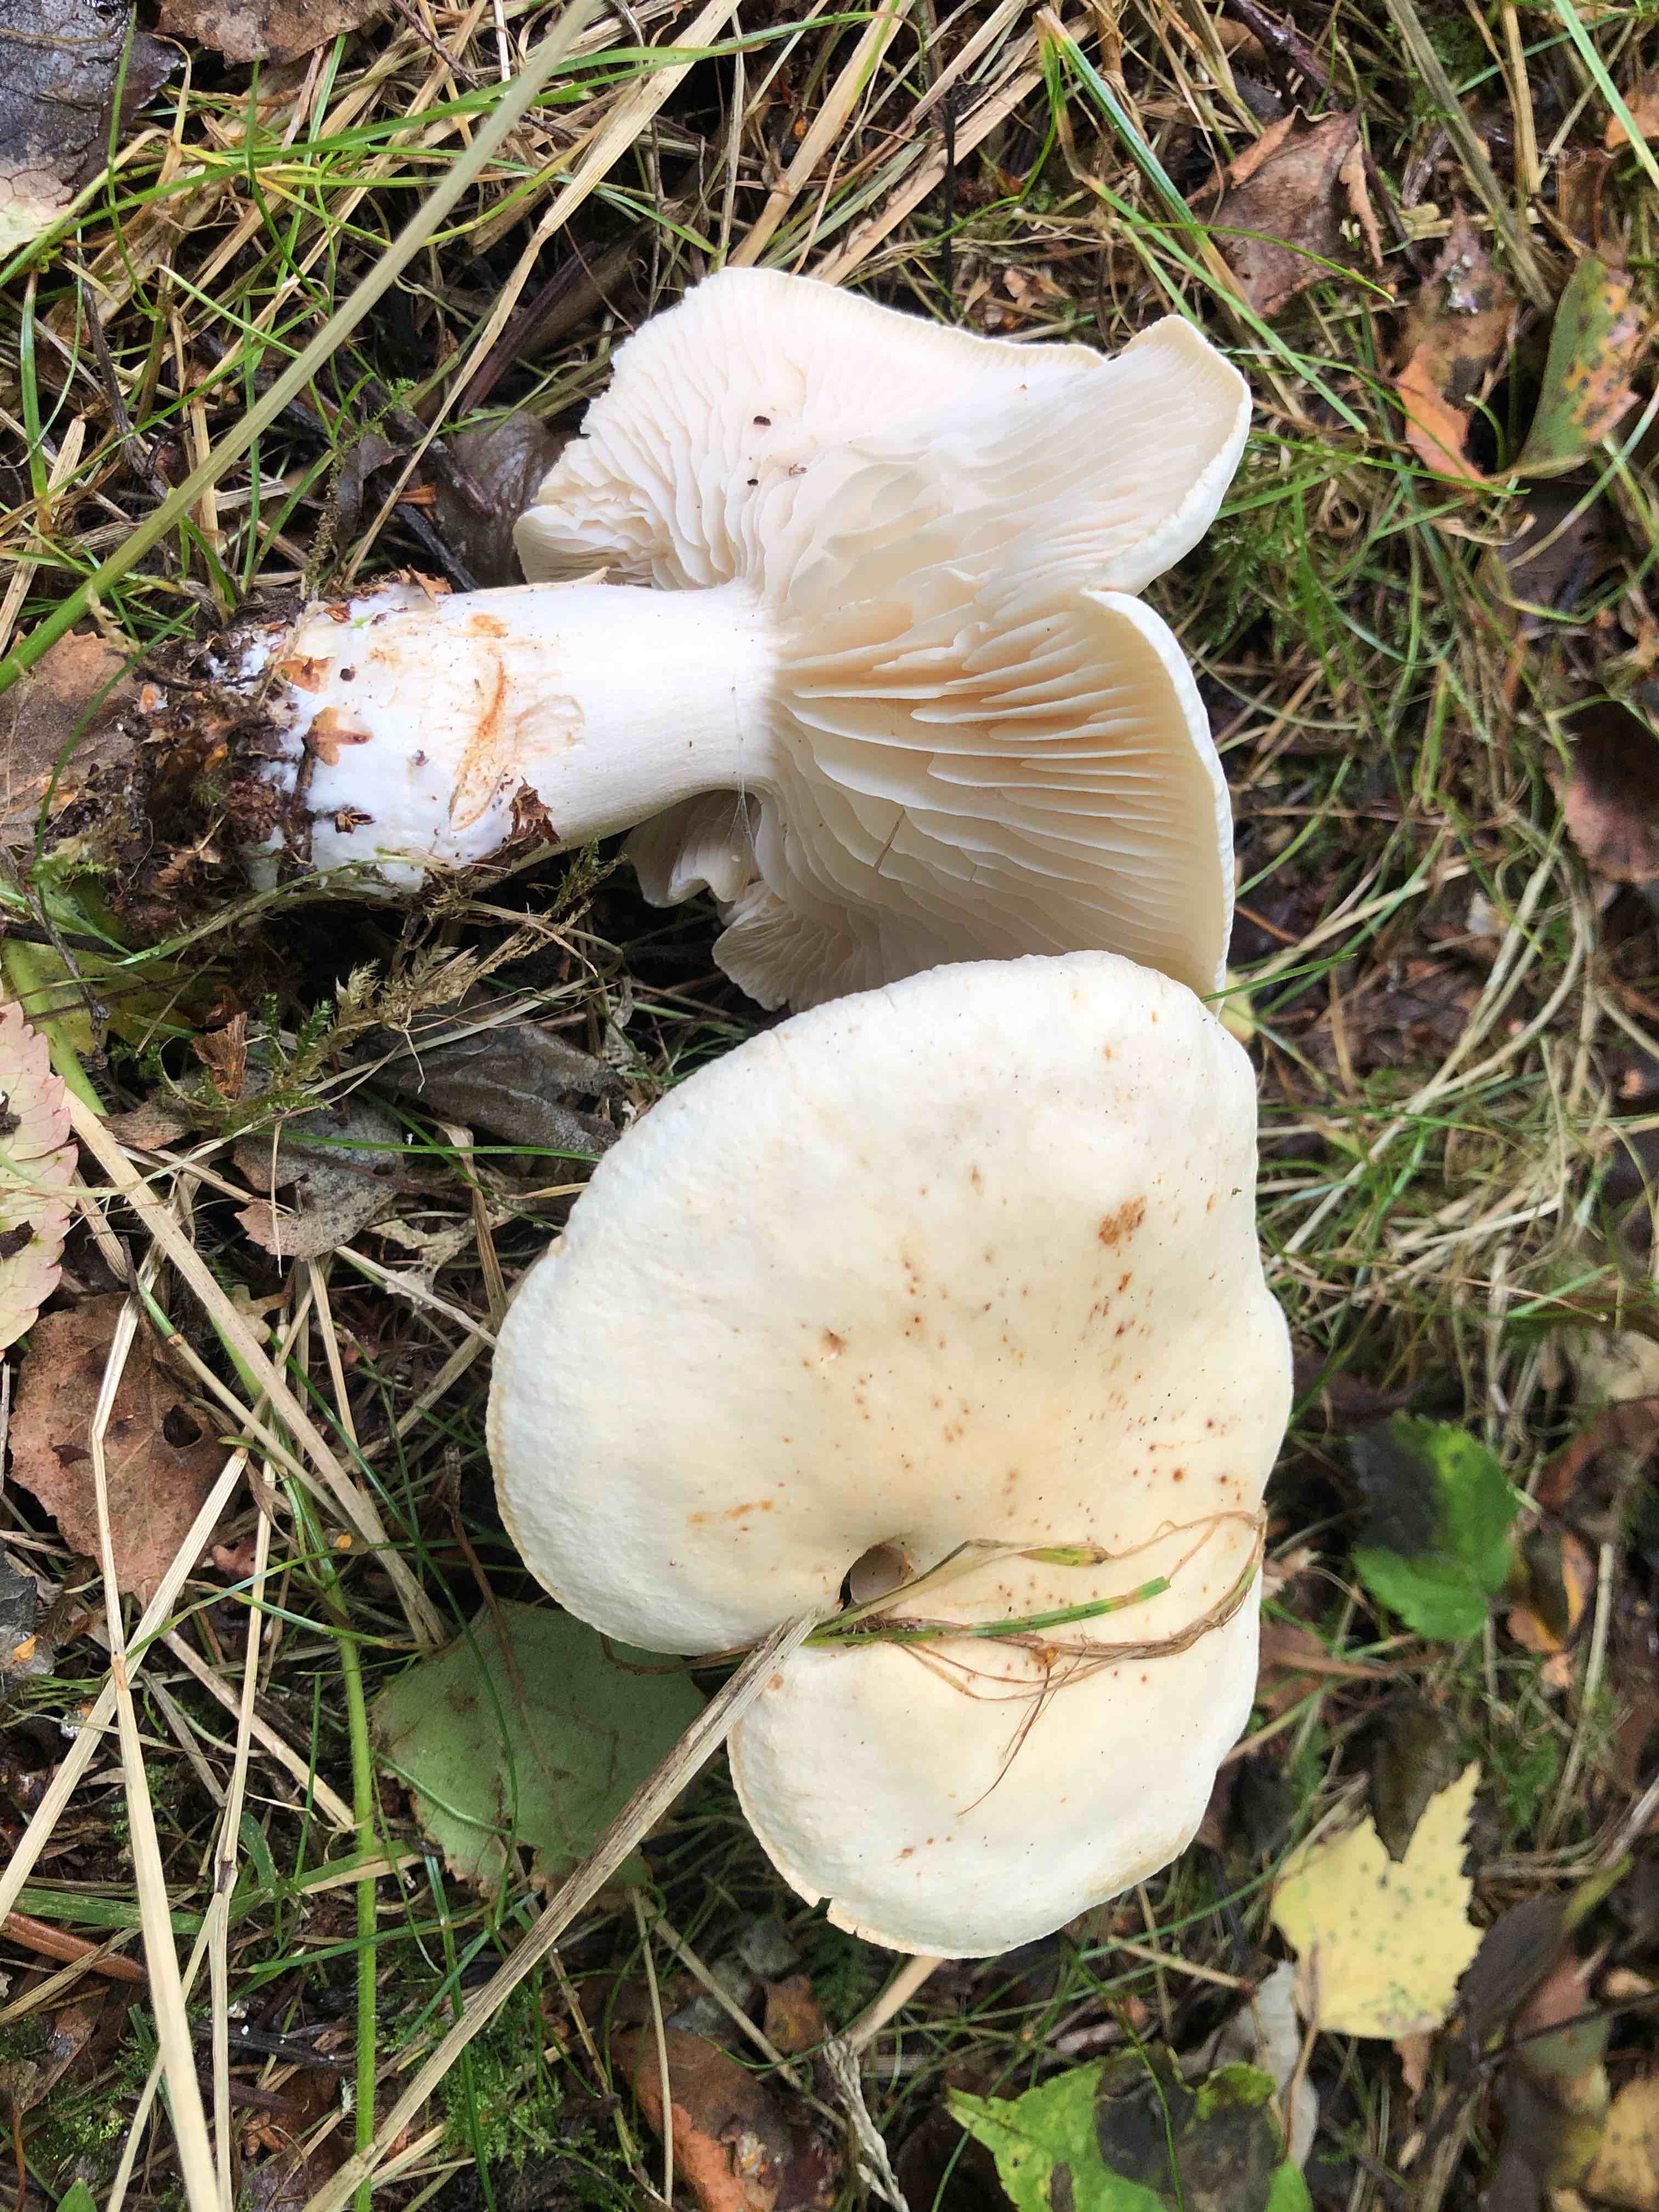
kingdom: Fungi
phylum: Basidiomycota
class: Agaricomycetes
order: Agaricales
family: Tricholomataceae
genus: Tricholoma
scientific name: Tricholoma stiparophyllum
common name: hvid ridderhat
